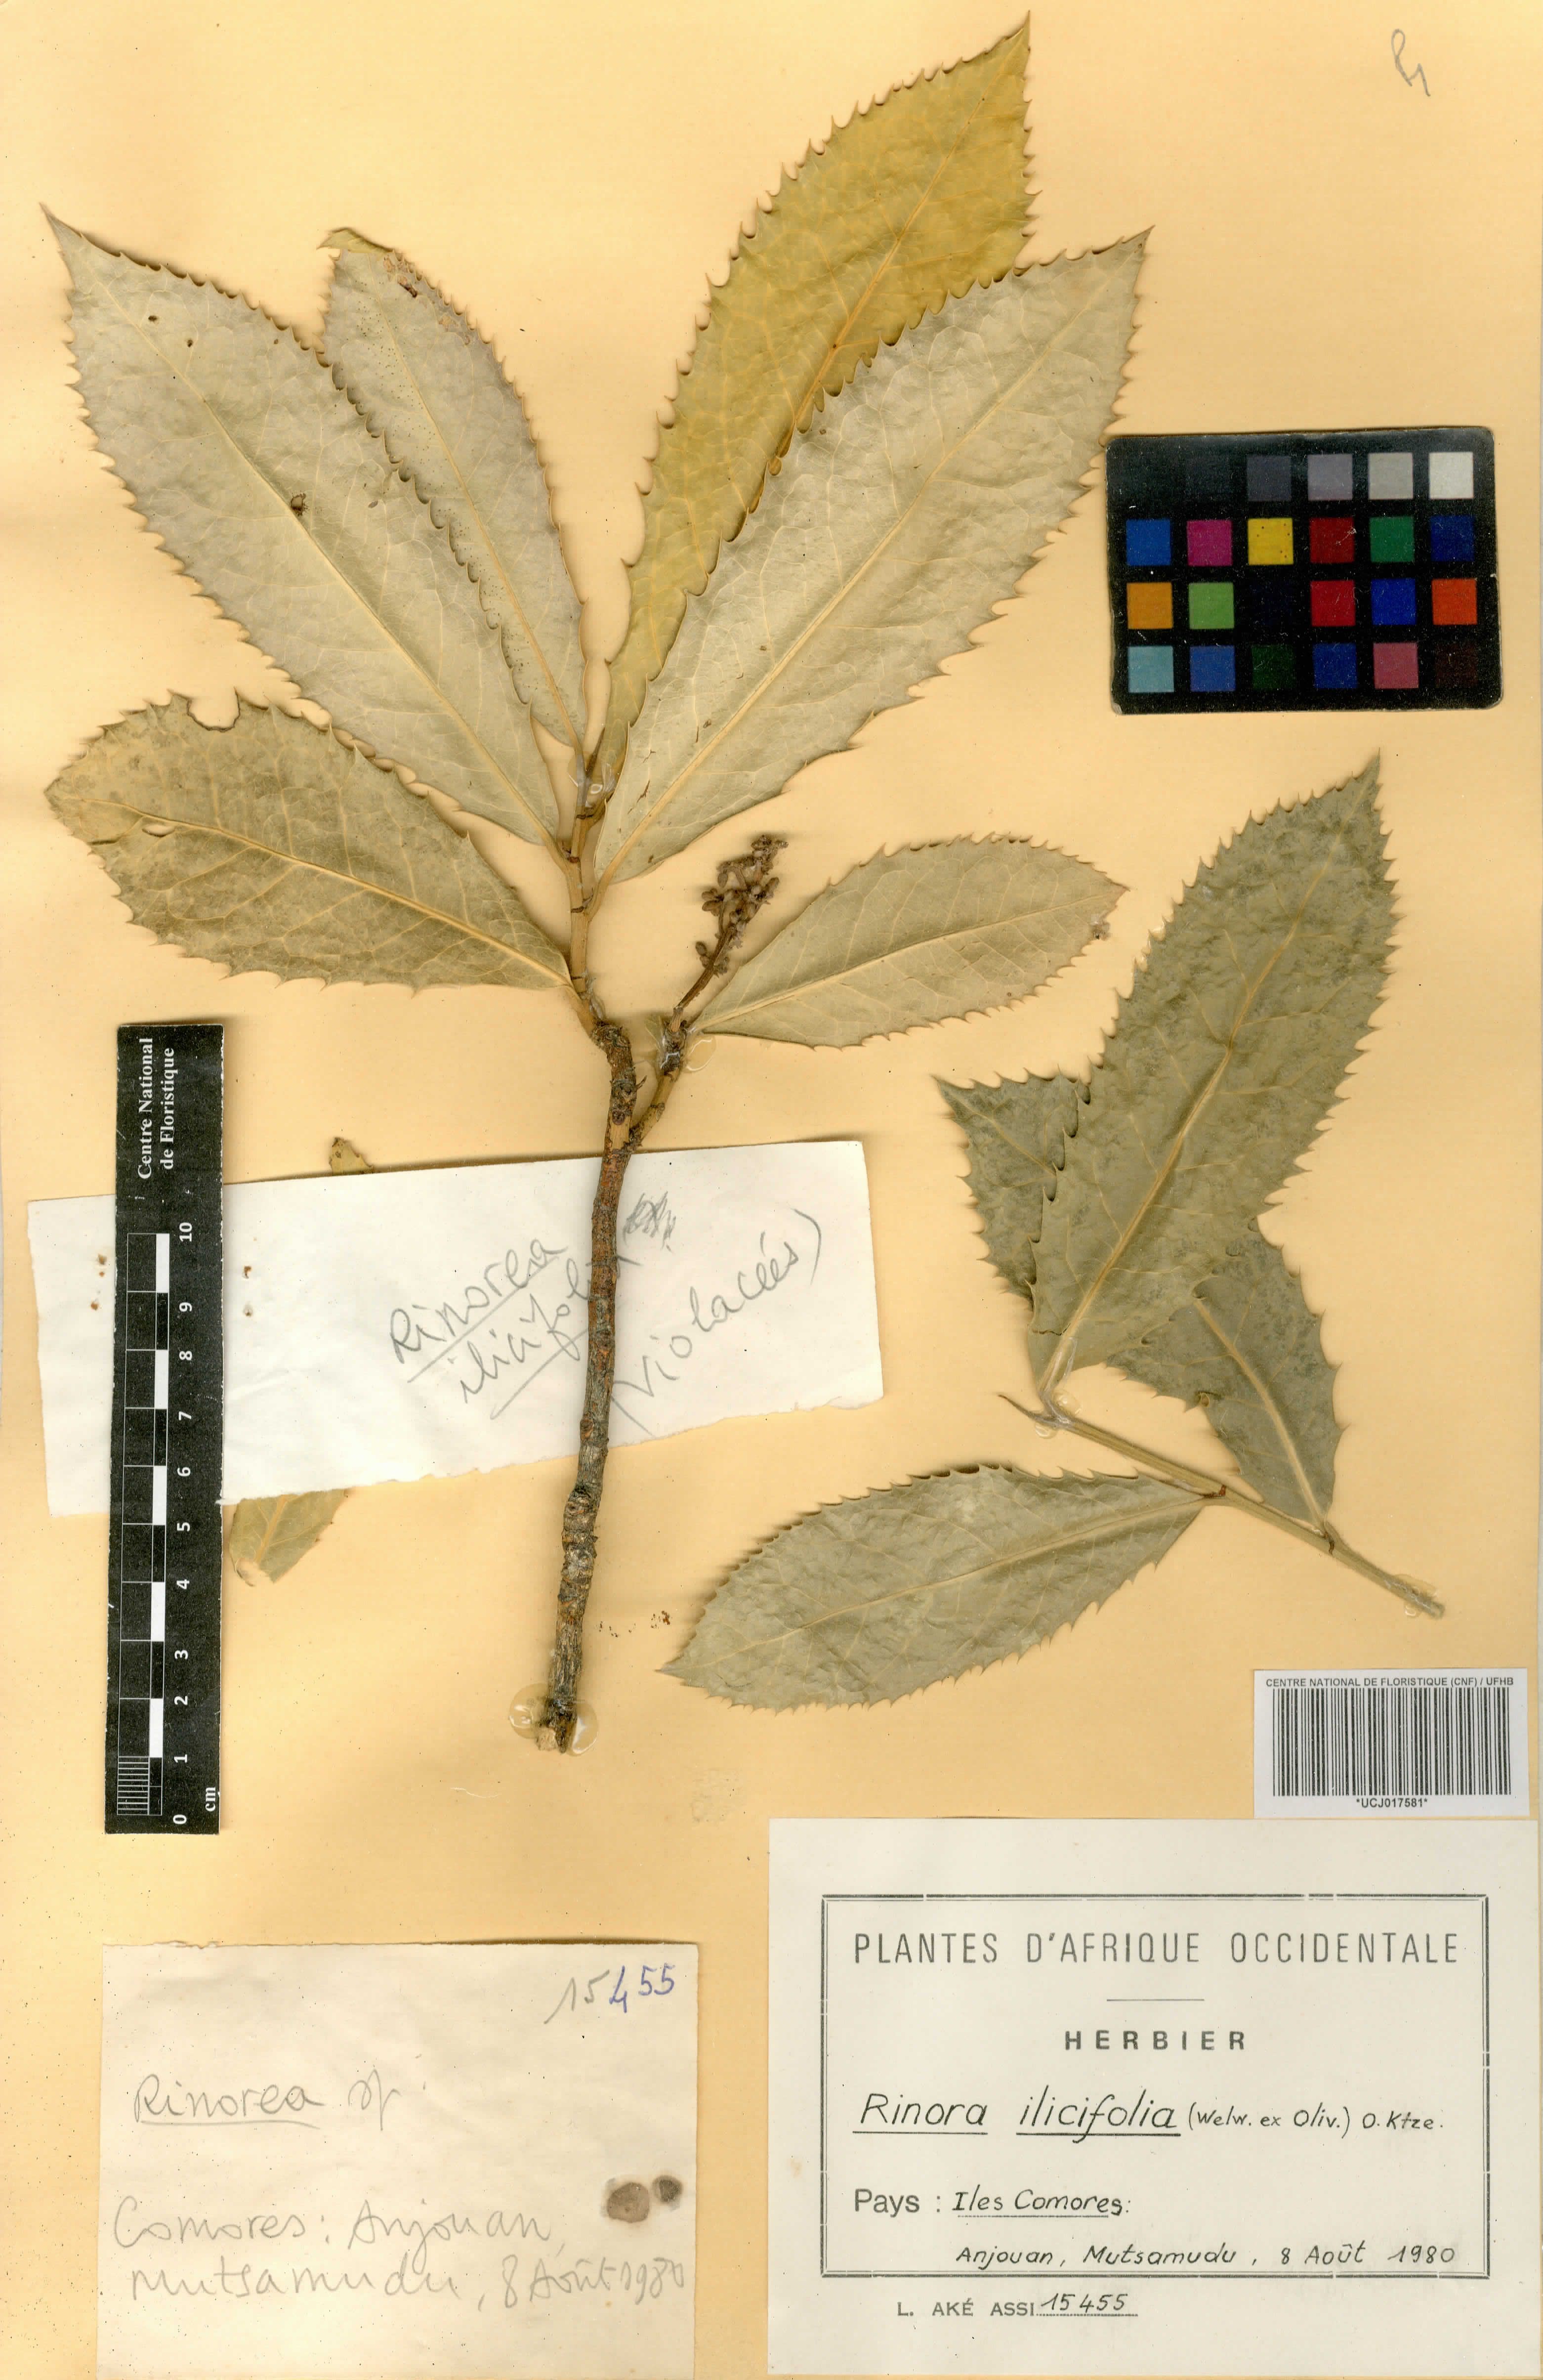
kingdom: Plantae
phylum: Tracheophyta
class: Magnoliopsida
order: Malpighiales
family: Violaceae
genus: Rinorea
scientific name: Rinorea ilicifolia
